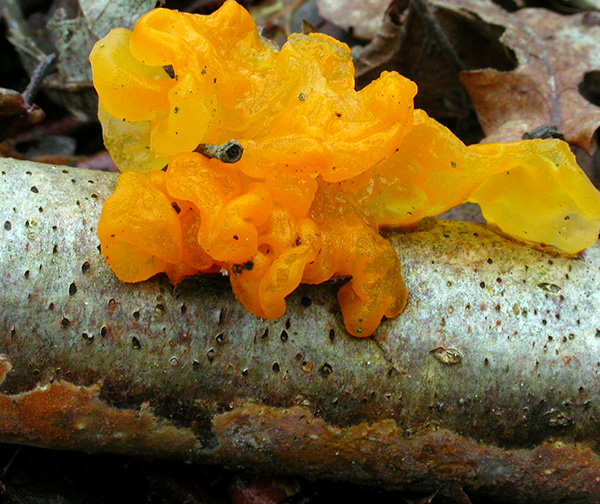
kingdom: Fungi
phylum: Basidiomycota
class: Tremellomycetes
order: Tremellales
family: Tremellaceae
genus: Tremella
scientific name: Tremella mesenterica
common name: gul bævresvamp
